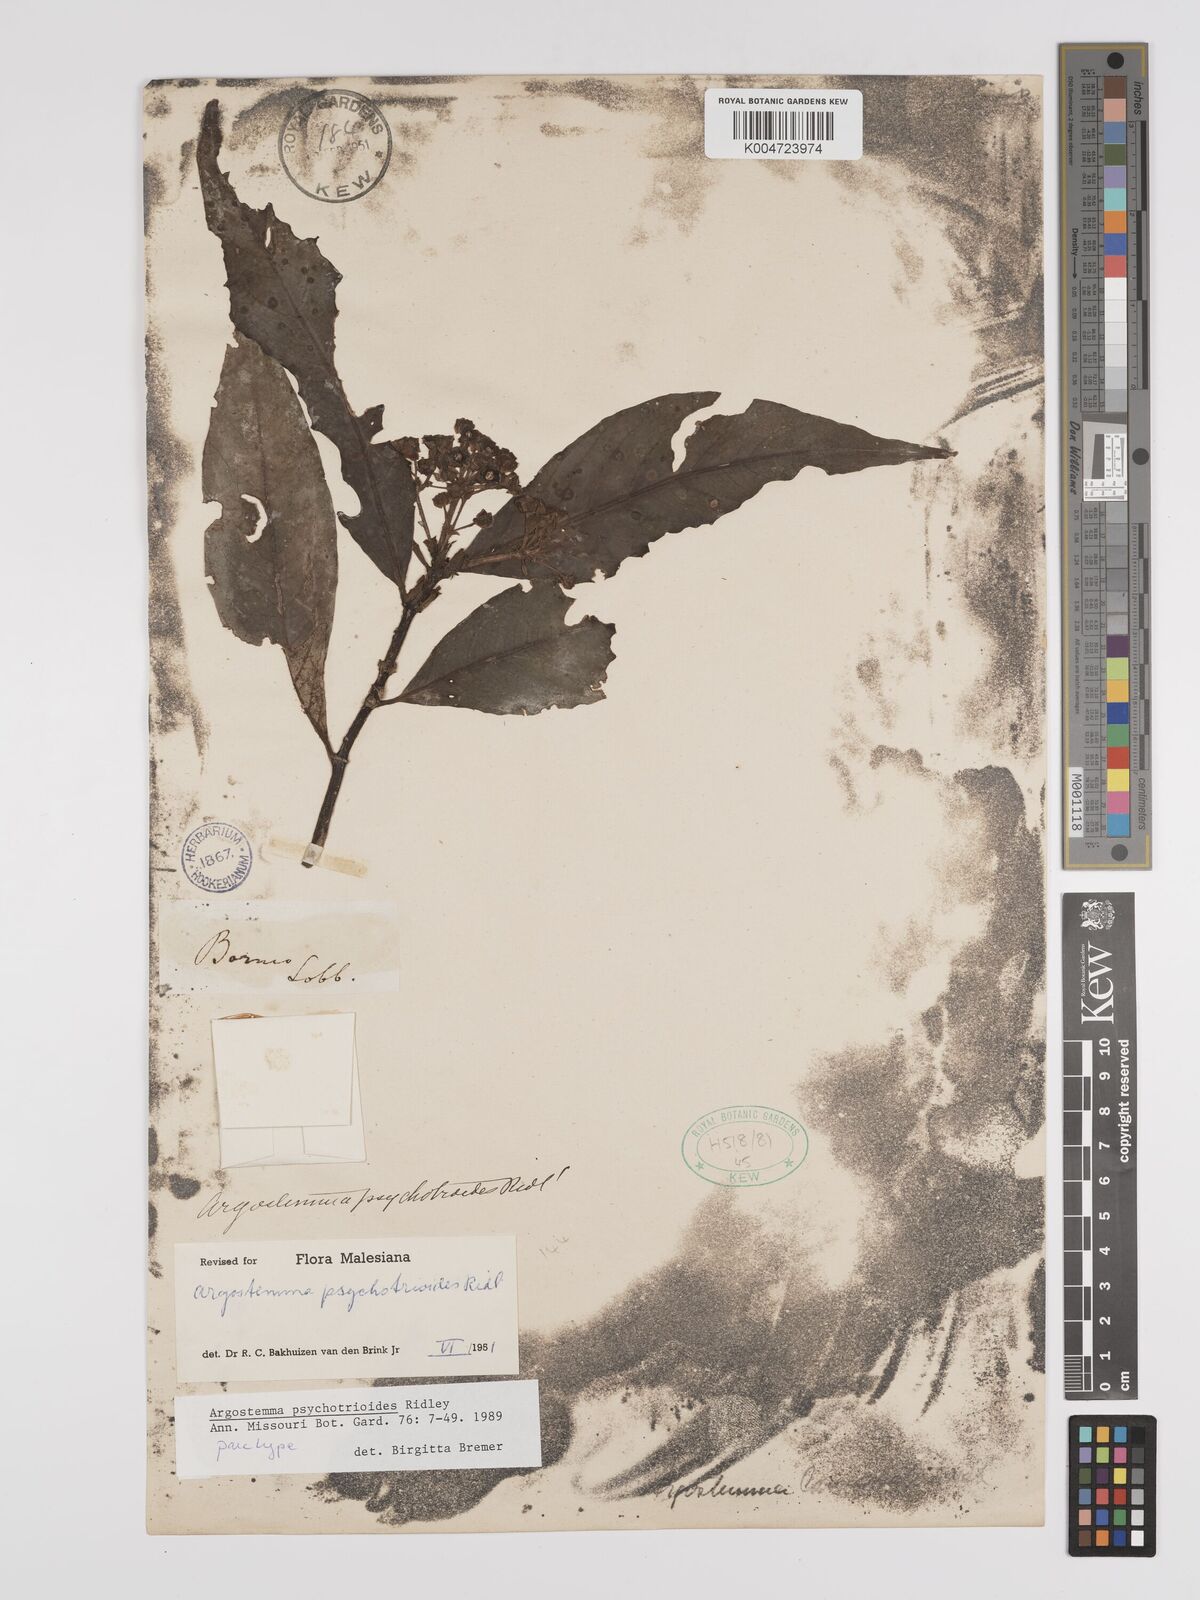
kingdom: Plantae
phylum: Tracheophyta
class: Magnoliopsida
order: Gentianales
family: Rubiaceae
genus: Argostemma
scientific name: Argostemma psychotrioides
